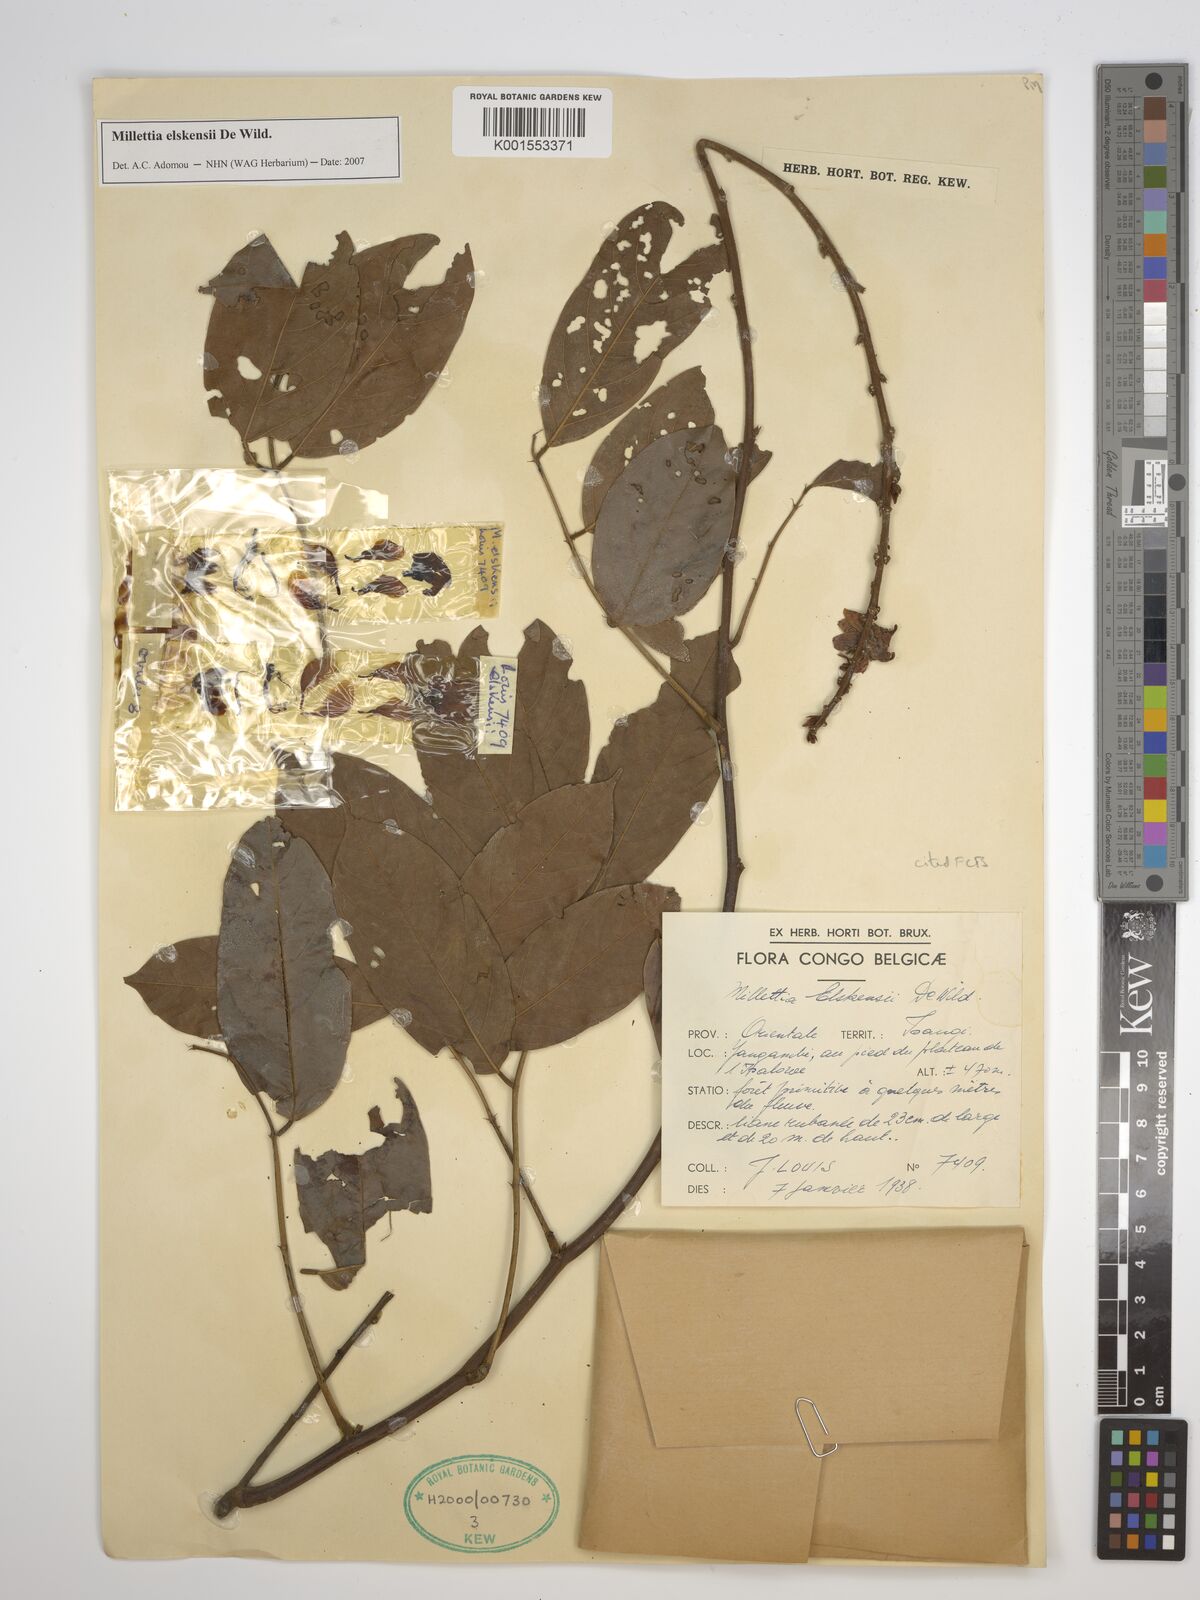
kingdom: Plantae
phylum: Tracheophyta
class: Magnoliopsida
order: Fabales
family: Fabaceae
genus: Millettia
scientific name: Millettia elskensii
